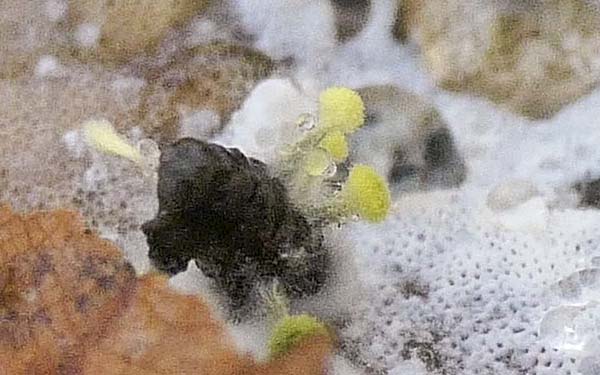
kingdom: Fungi
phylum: Ascomycota
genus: Mycosylva
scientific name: Mycosylva clarkii
